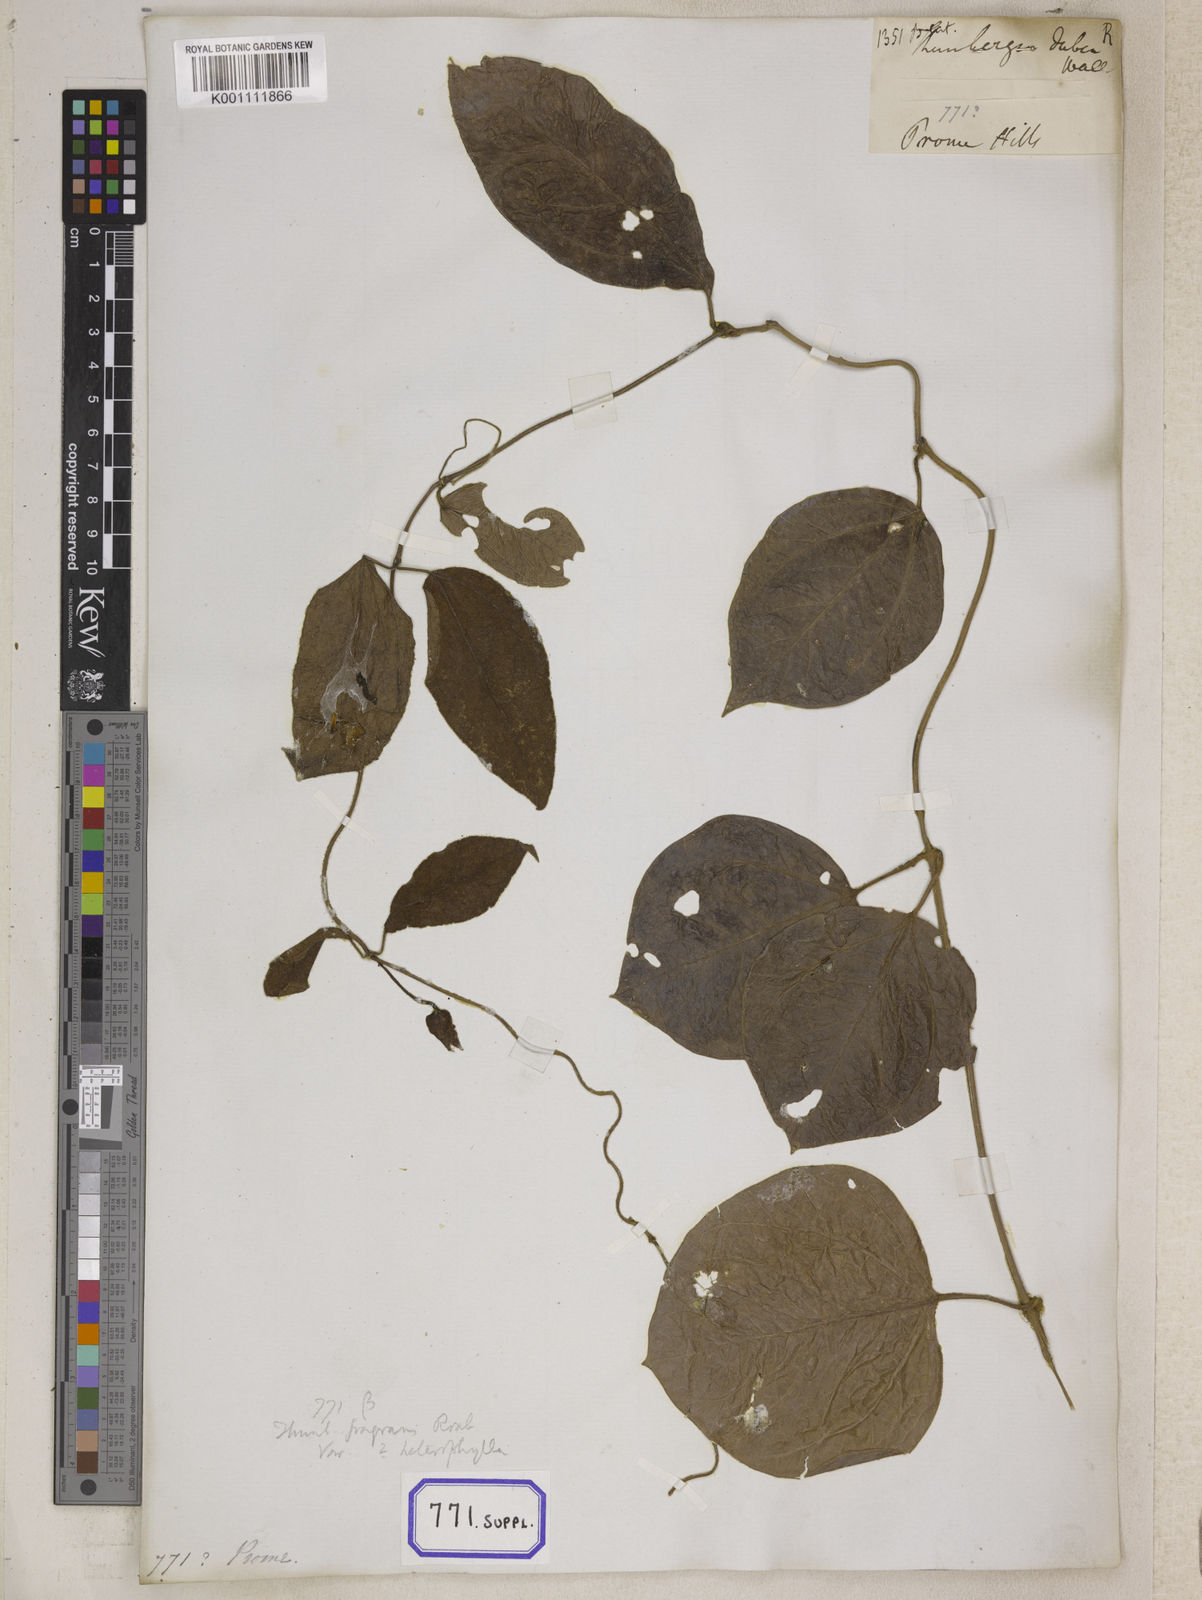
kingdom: Plantae
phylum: Tracheophyta
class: Magnoliopsida
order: Lamiales
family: Acanthaceae
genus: Thunbergia
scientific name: Thunbergia fragrans
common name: Whitelady
